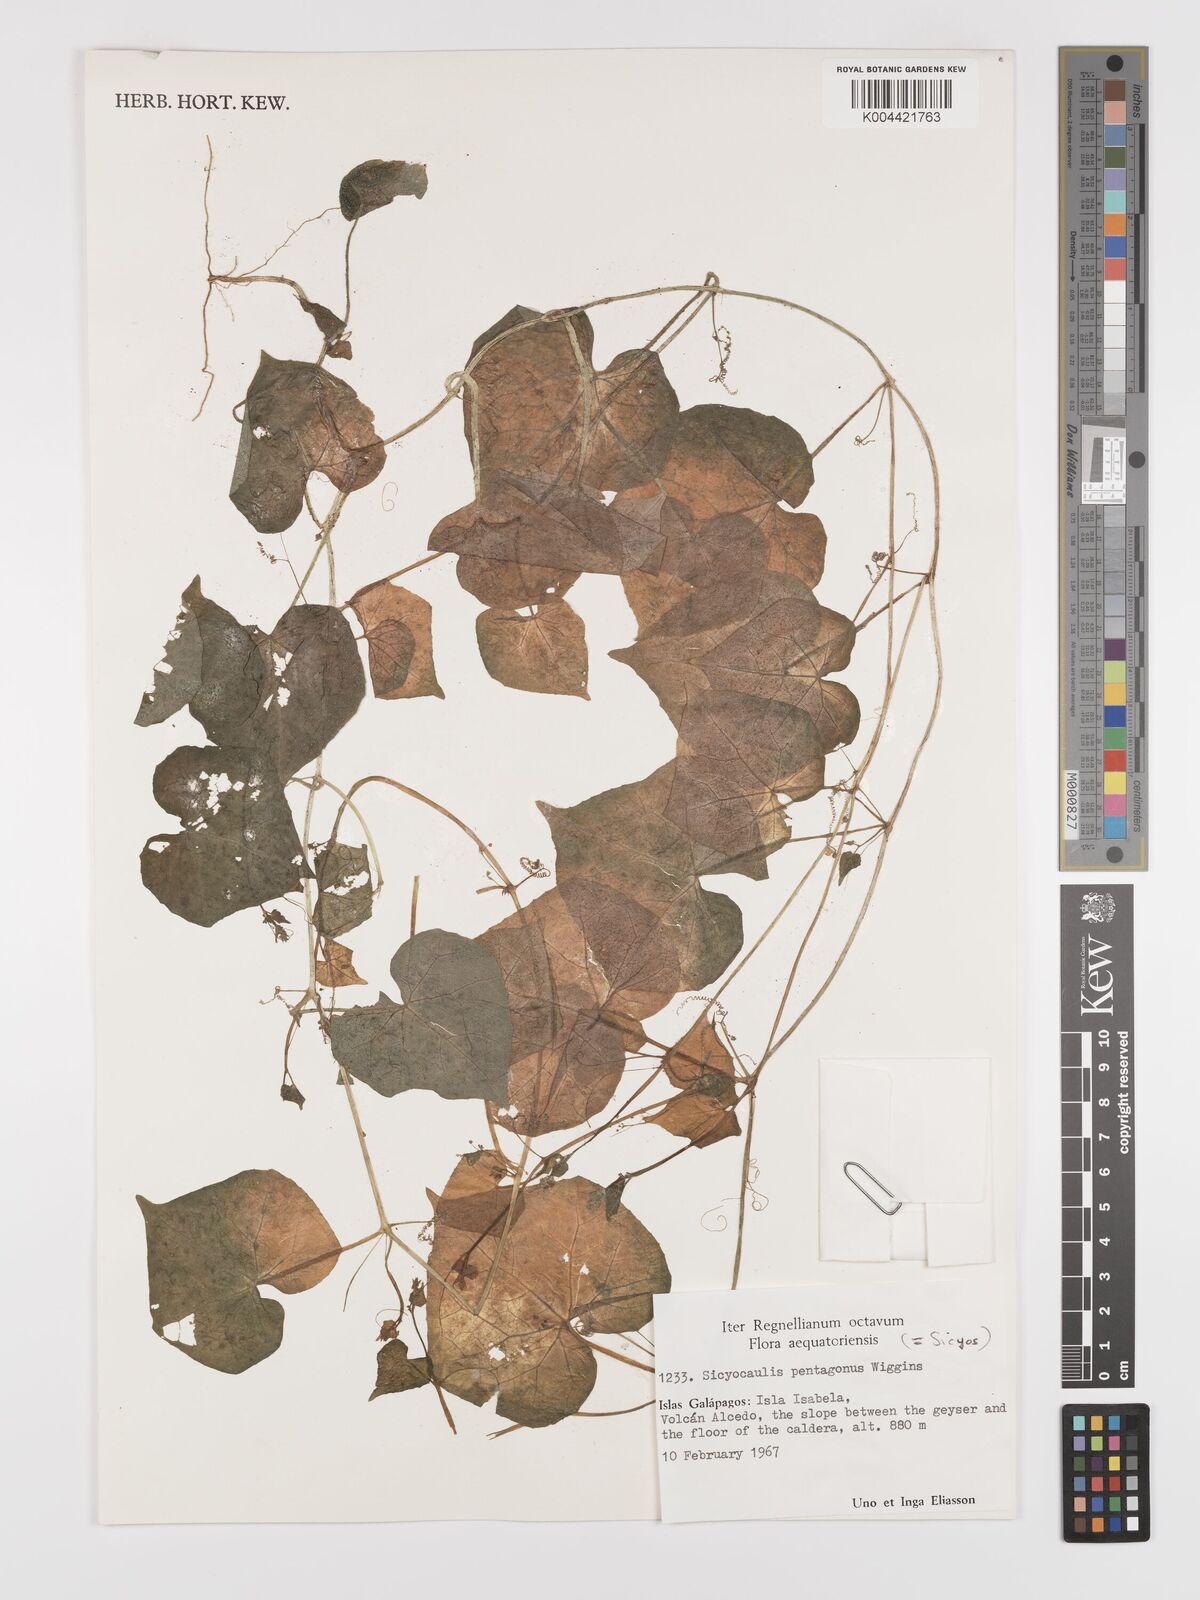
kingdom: Plantae
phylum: Tracheophyta
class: Magnoliopsida
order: Cucurbitales
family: Cucurbitaceae
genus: Sicyocaulis
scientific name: Sicyocaulis pentagonus
